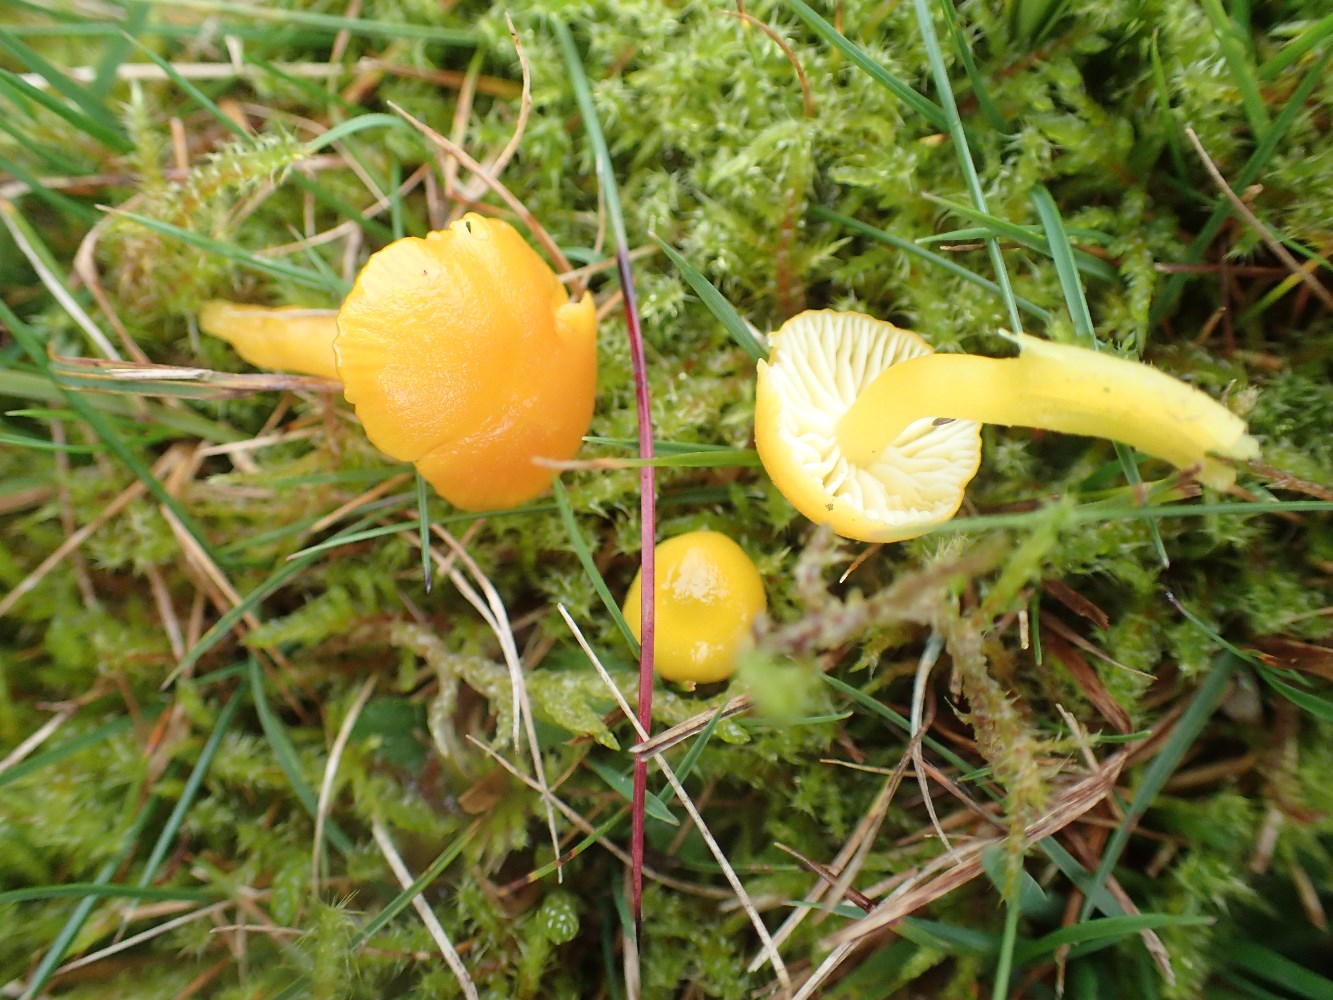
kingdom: Fungi
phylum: Basidiomycota
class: Agaricomycetes
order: Agaricales
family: Hygrophoraceae
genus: Hygrocybe
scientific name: Hygrocybe ceracea
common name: voksgul vokshat
